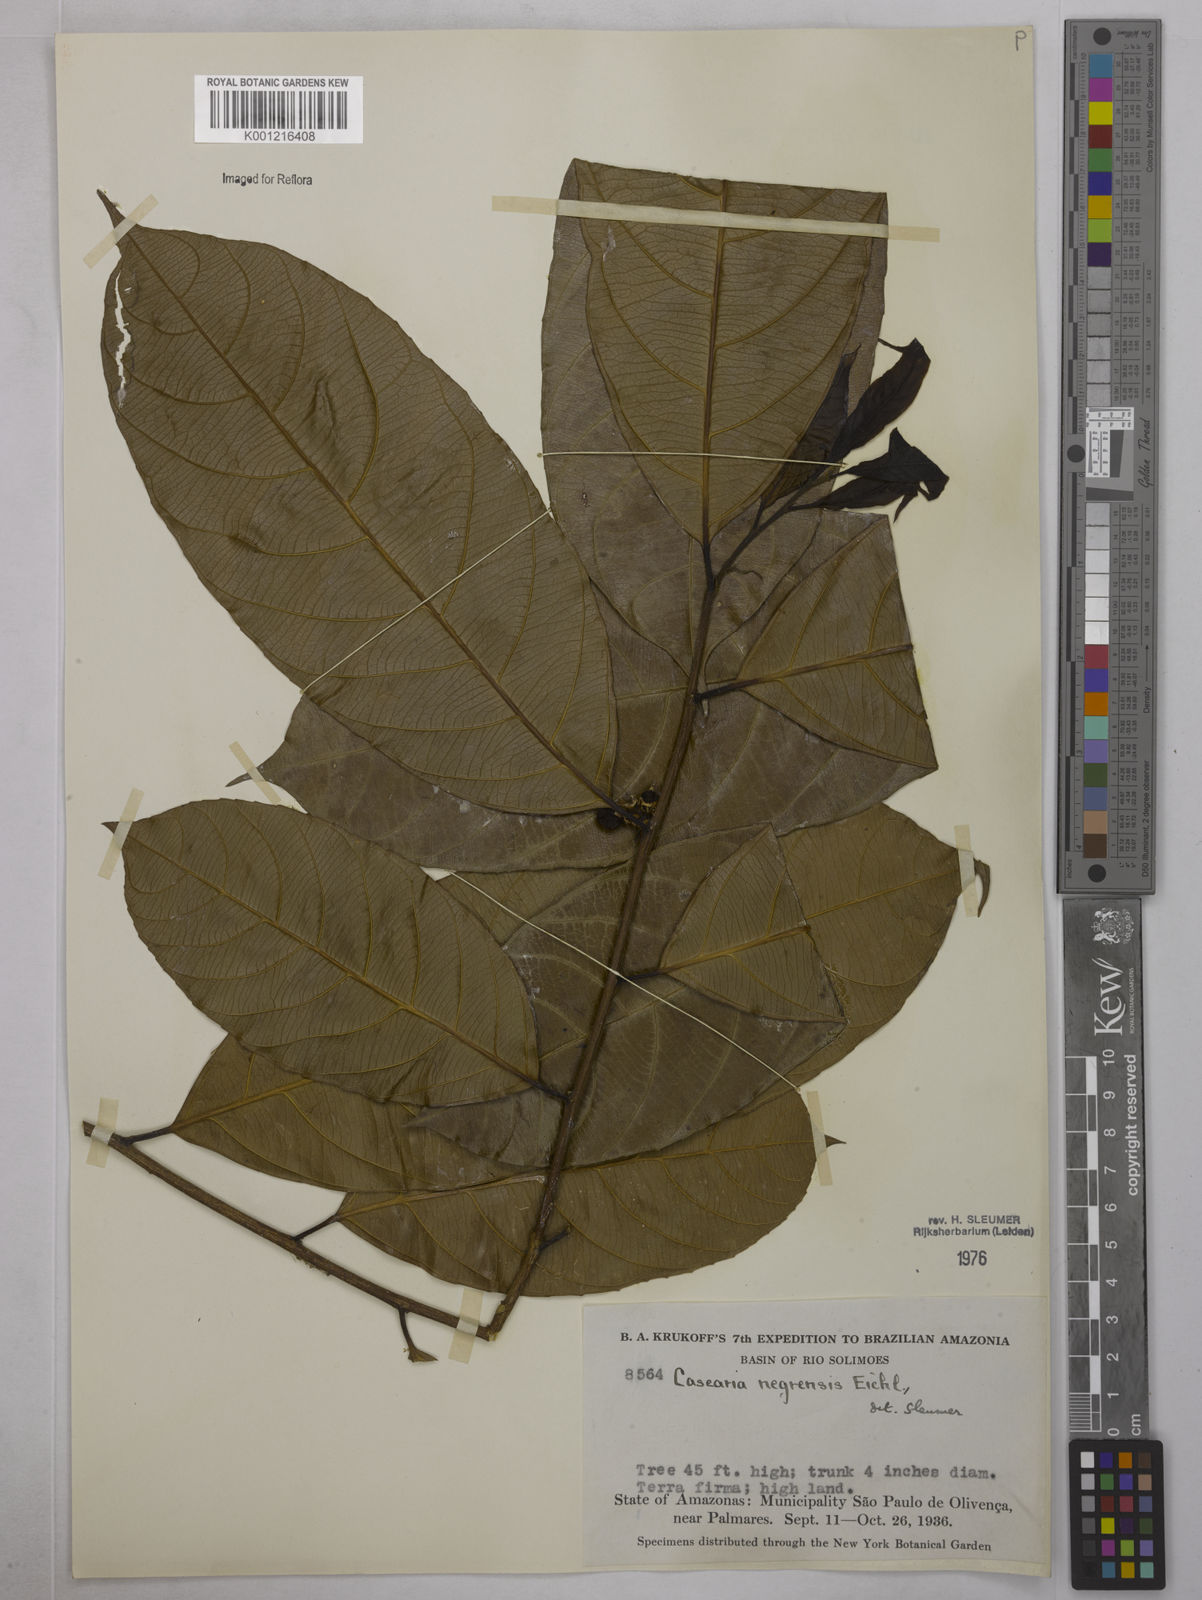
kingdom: Plantae
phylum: Tracheophyta
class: Magnoliopsida
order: Malpighiales
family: Salicaceae
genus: Casearia
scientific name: Casearia negrensis
